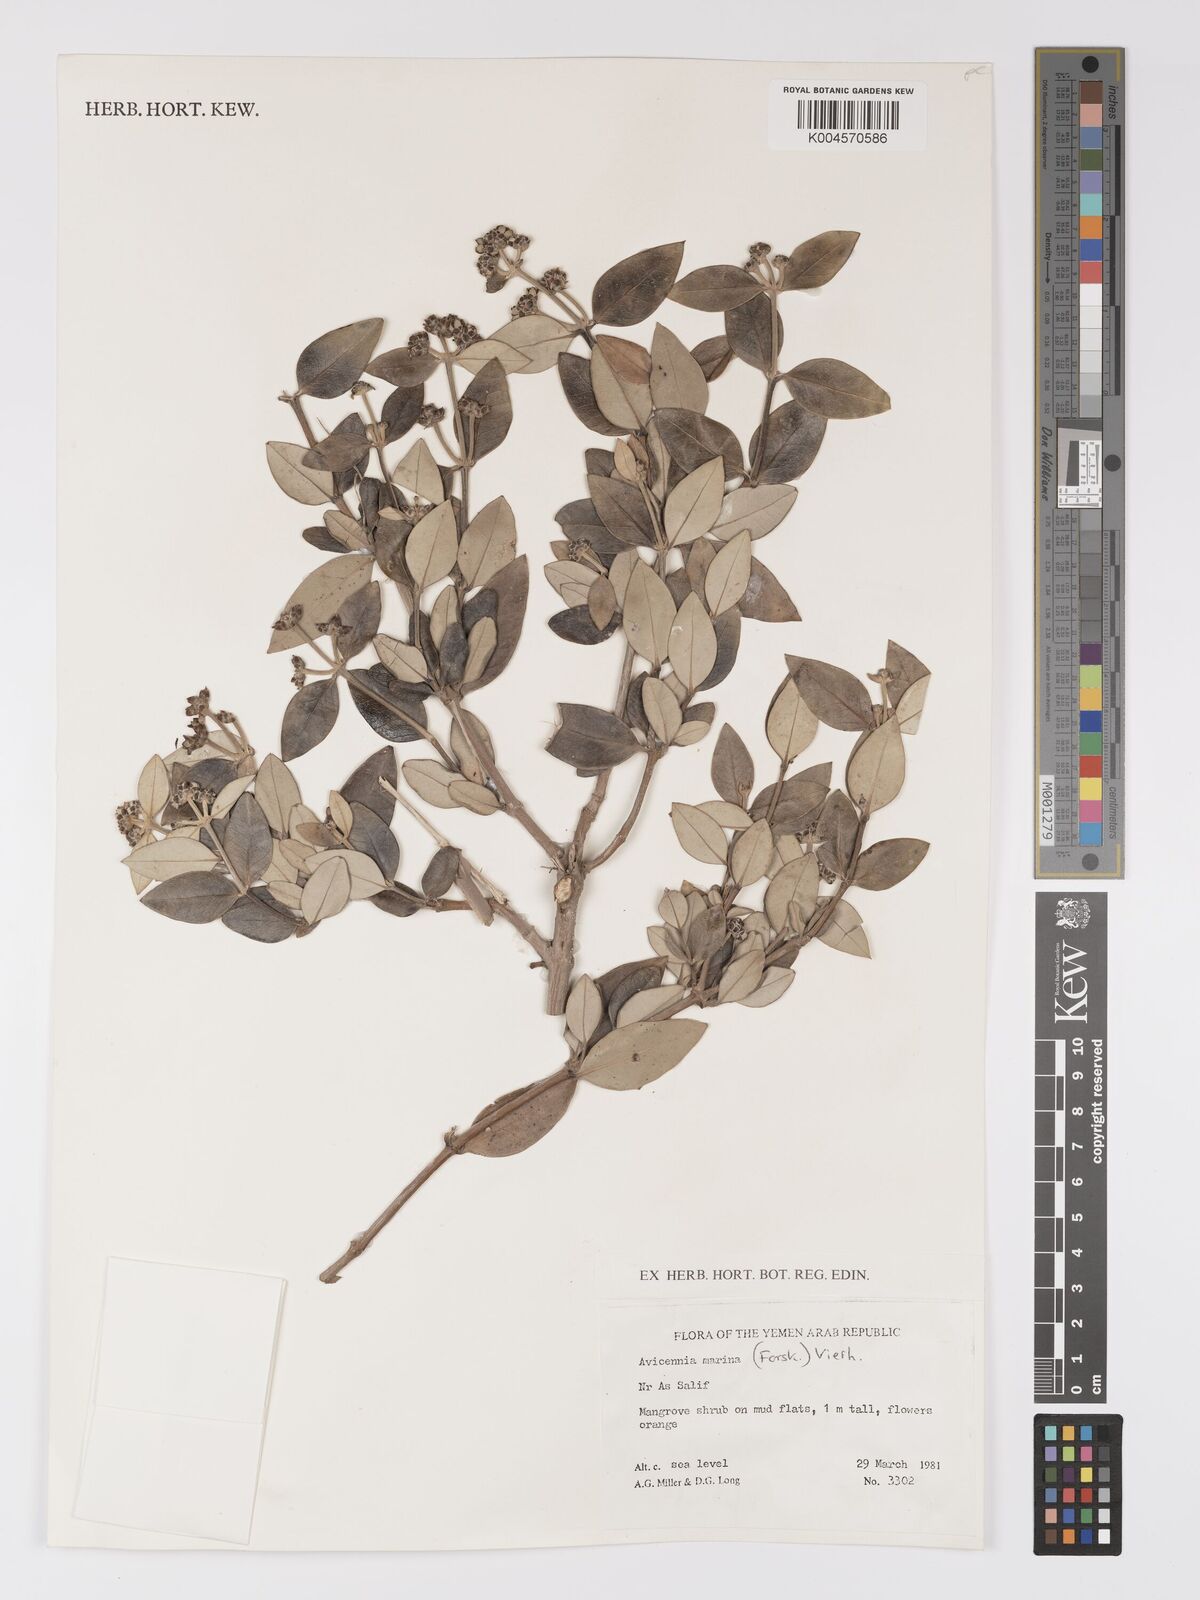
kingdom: Plantae
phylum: Tracheophyta
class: Magnoliopsida
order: Lamiales
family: Acanthaceae
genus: Avicennia
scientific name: Avicennia
